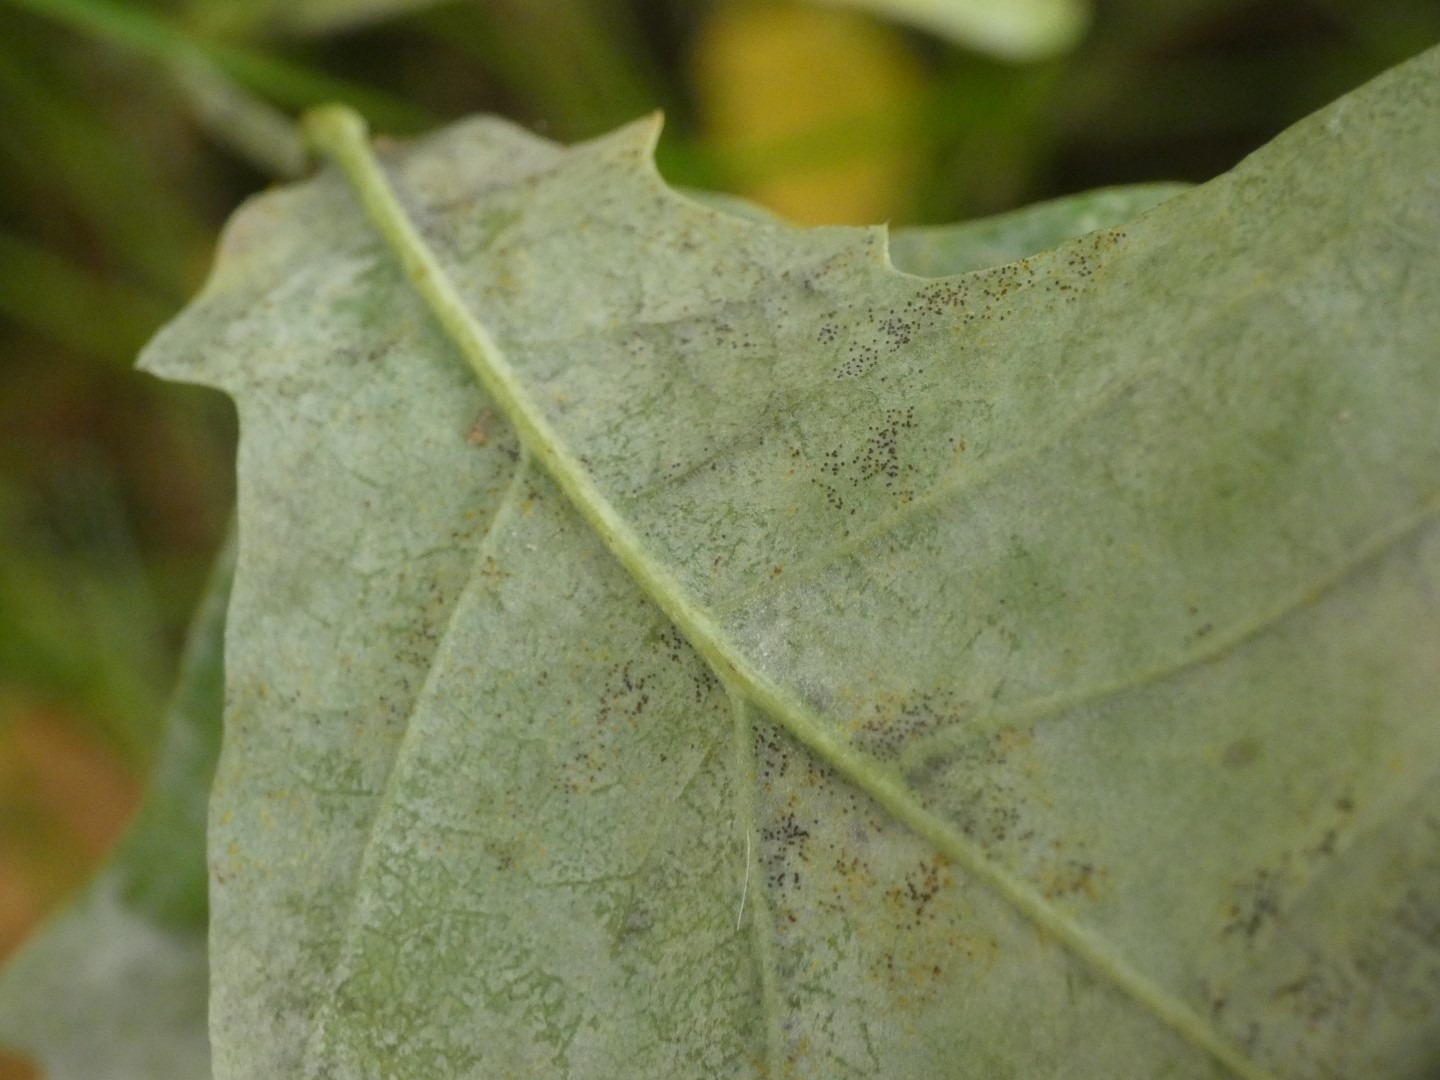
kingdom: Plantae
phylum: Tracheophyta
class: Magnoliopsida
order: Fagales
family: Fagaceae
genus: Quercus
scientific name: Quercus robur
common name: Stilk-eg/almindelig eg
